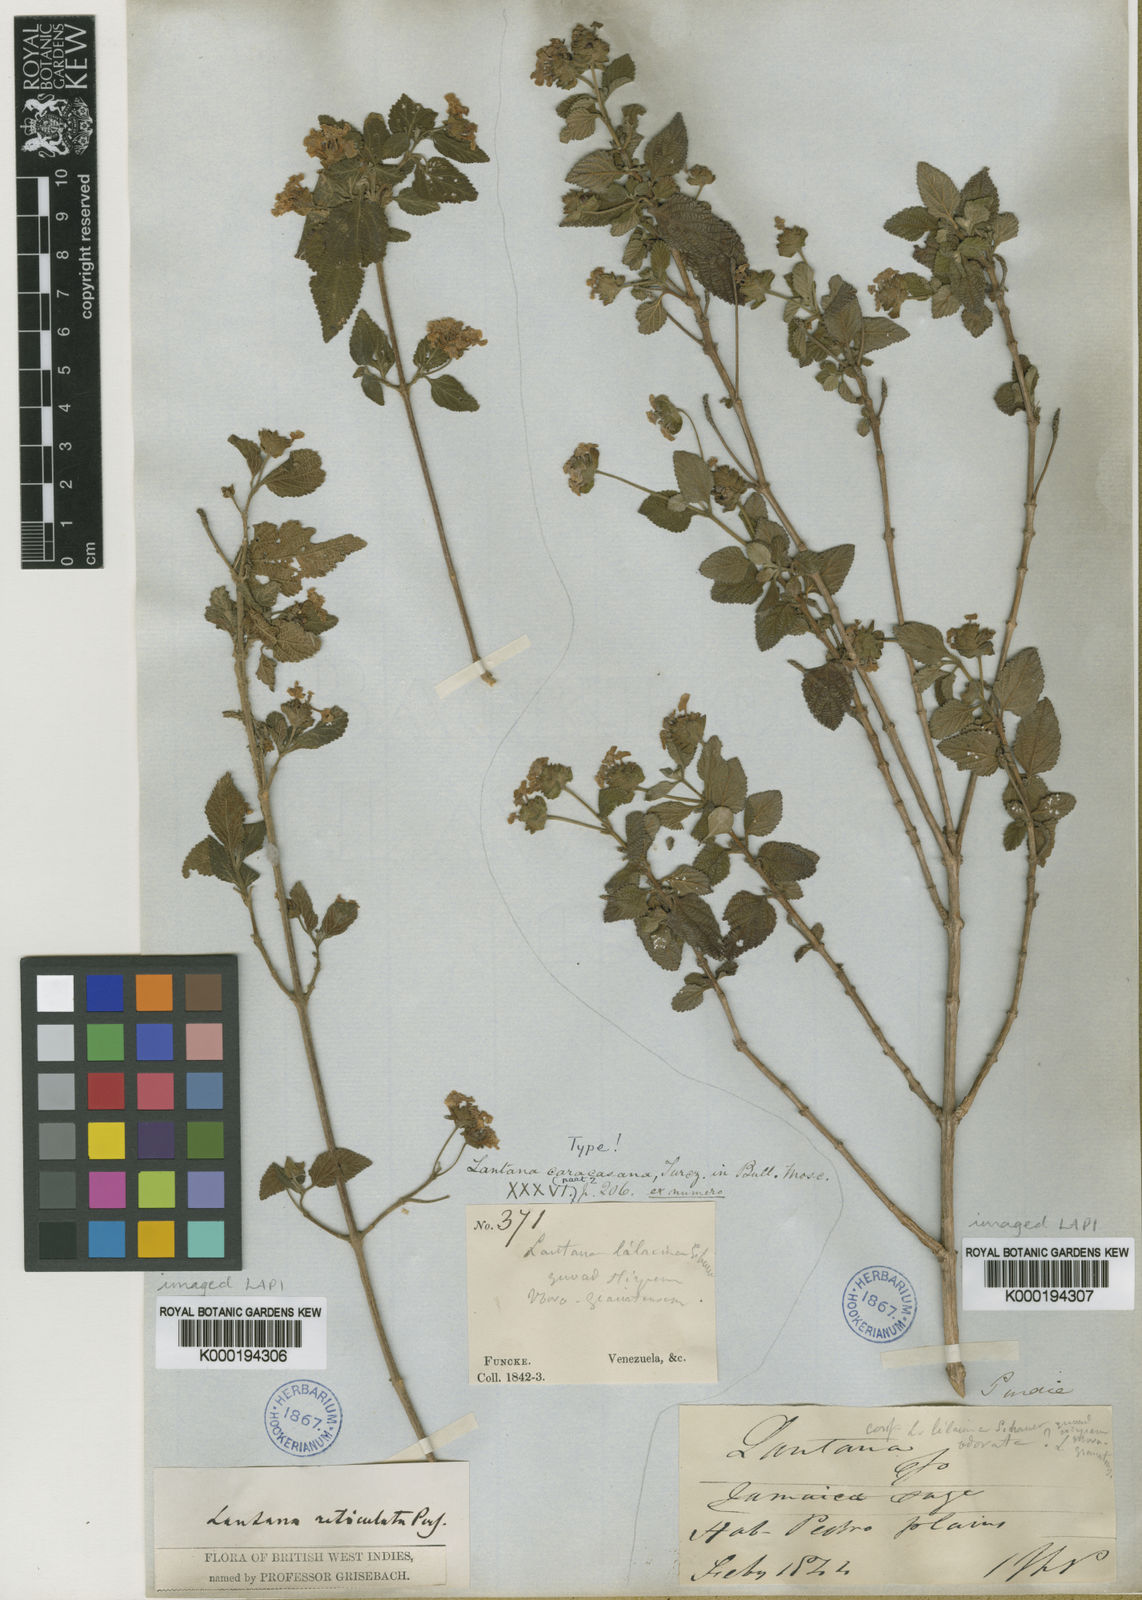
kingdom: Plantae
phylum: Tracheophyta
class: Magnoliopsida
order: Lamiales
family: Verbenaceae
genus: Lantana
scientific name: Lantana caracasana
